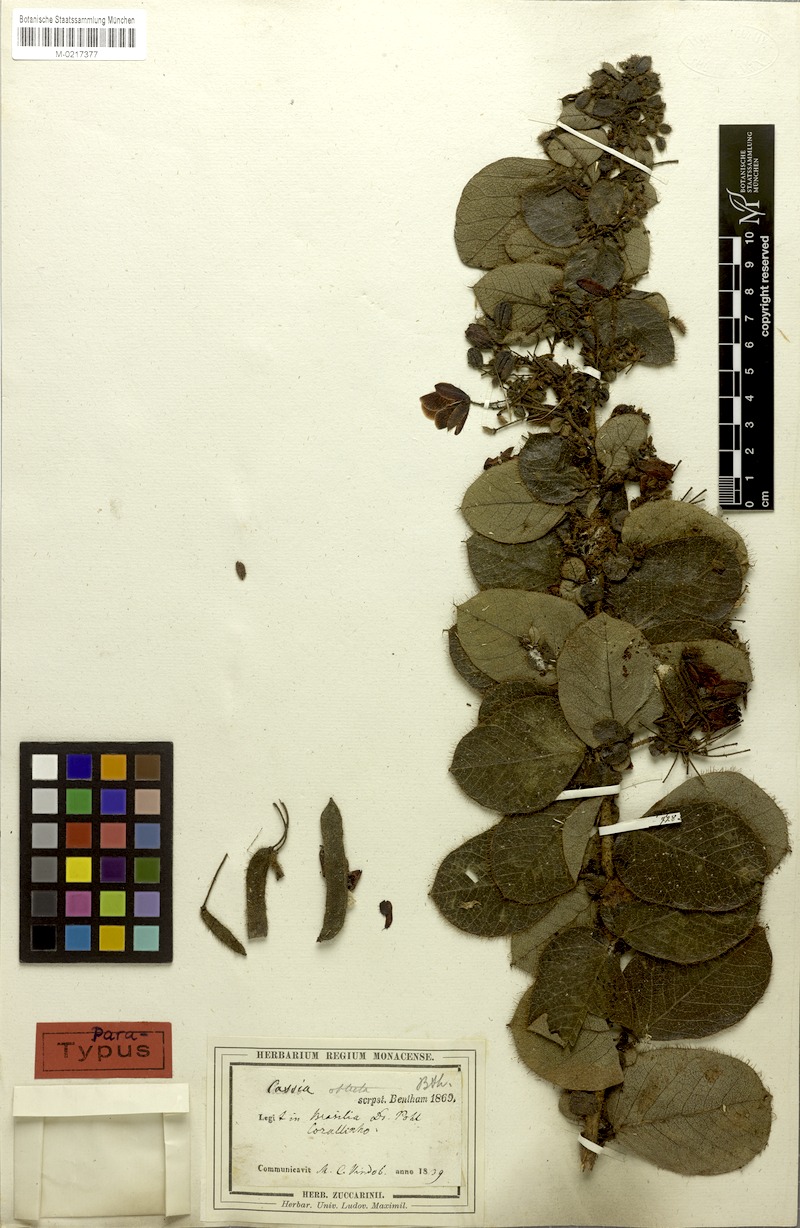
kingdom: Plantae
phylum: Tracheophyta
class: Magnoliopsida
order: Fabales
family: Fabaceae
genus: Chamaecrista
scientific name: Chamaecrista obtecta
